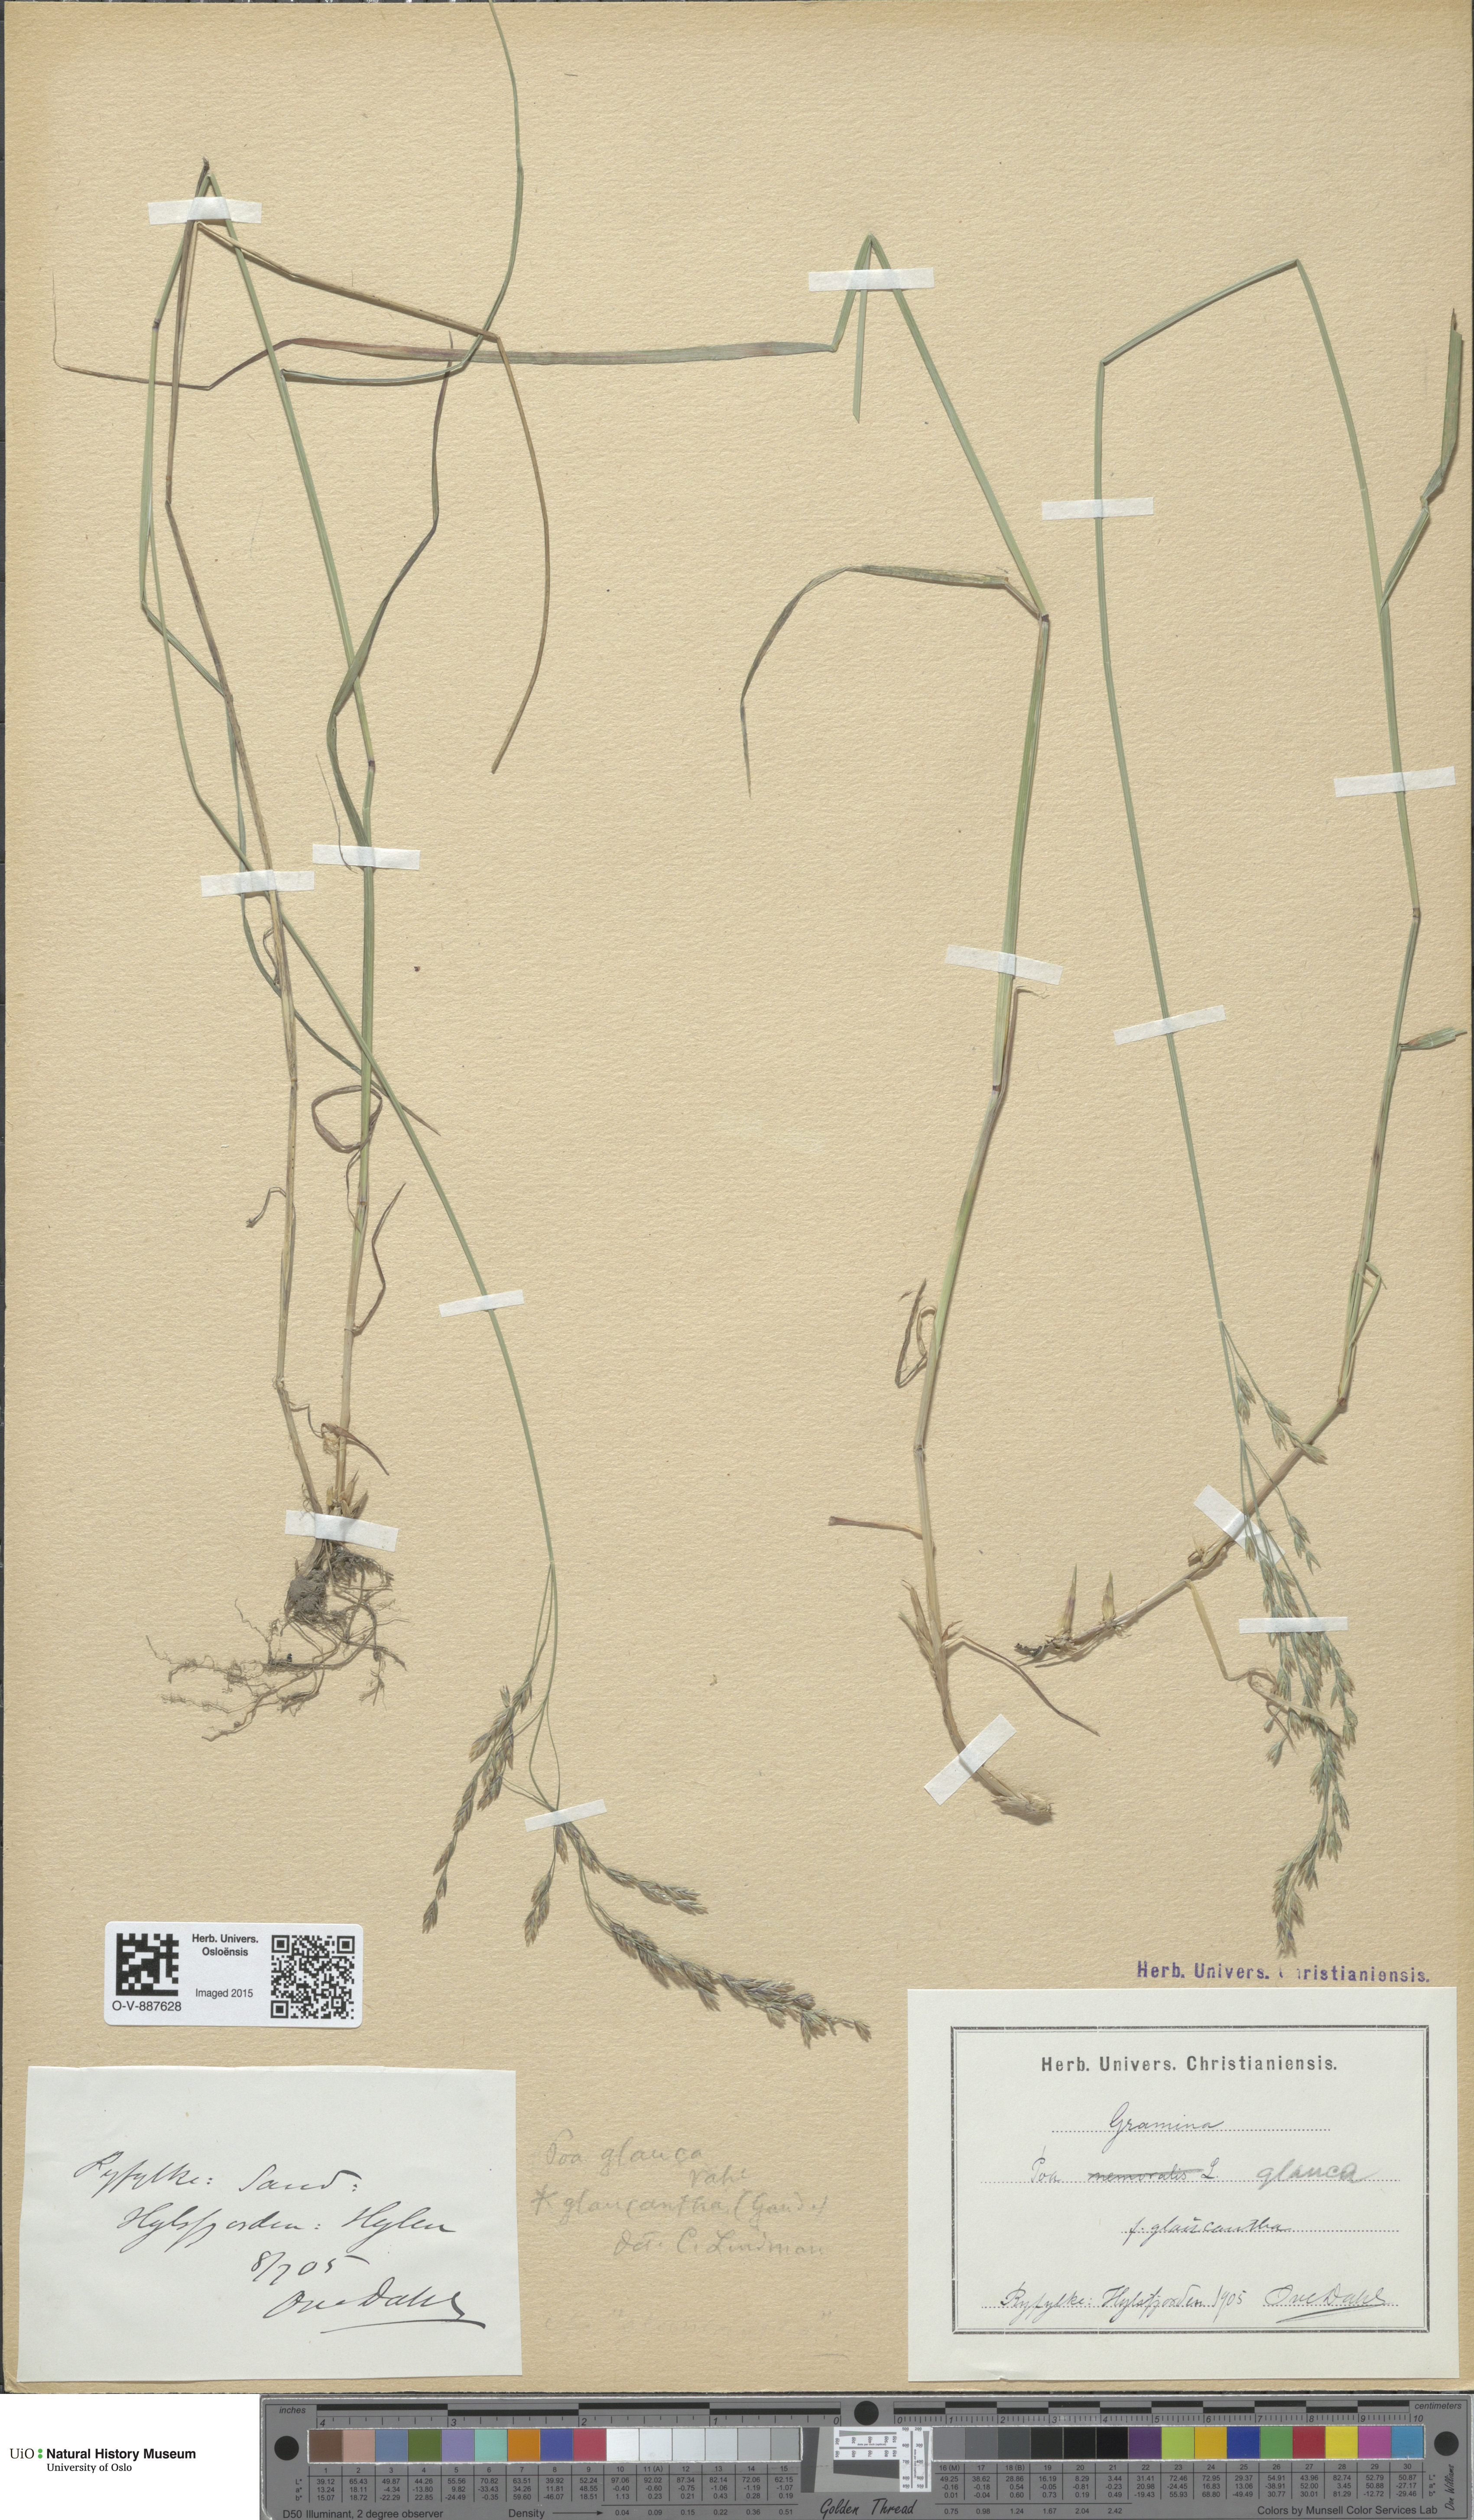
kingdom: Plantae
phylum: Tracheophyta
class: Liliopsida
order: Poales
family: Poaceae
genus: Poa
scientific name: Poa nemoralis
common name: Wood bluegrass
